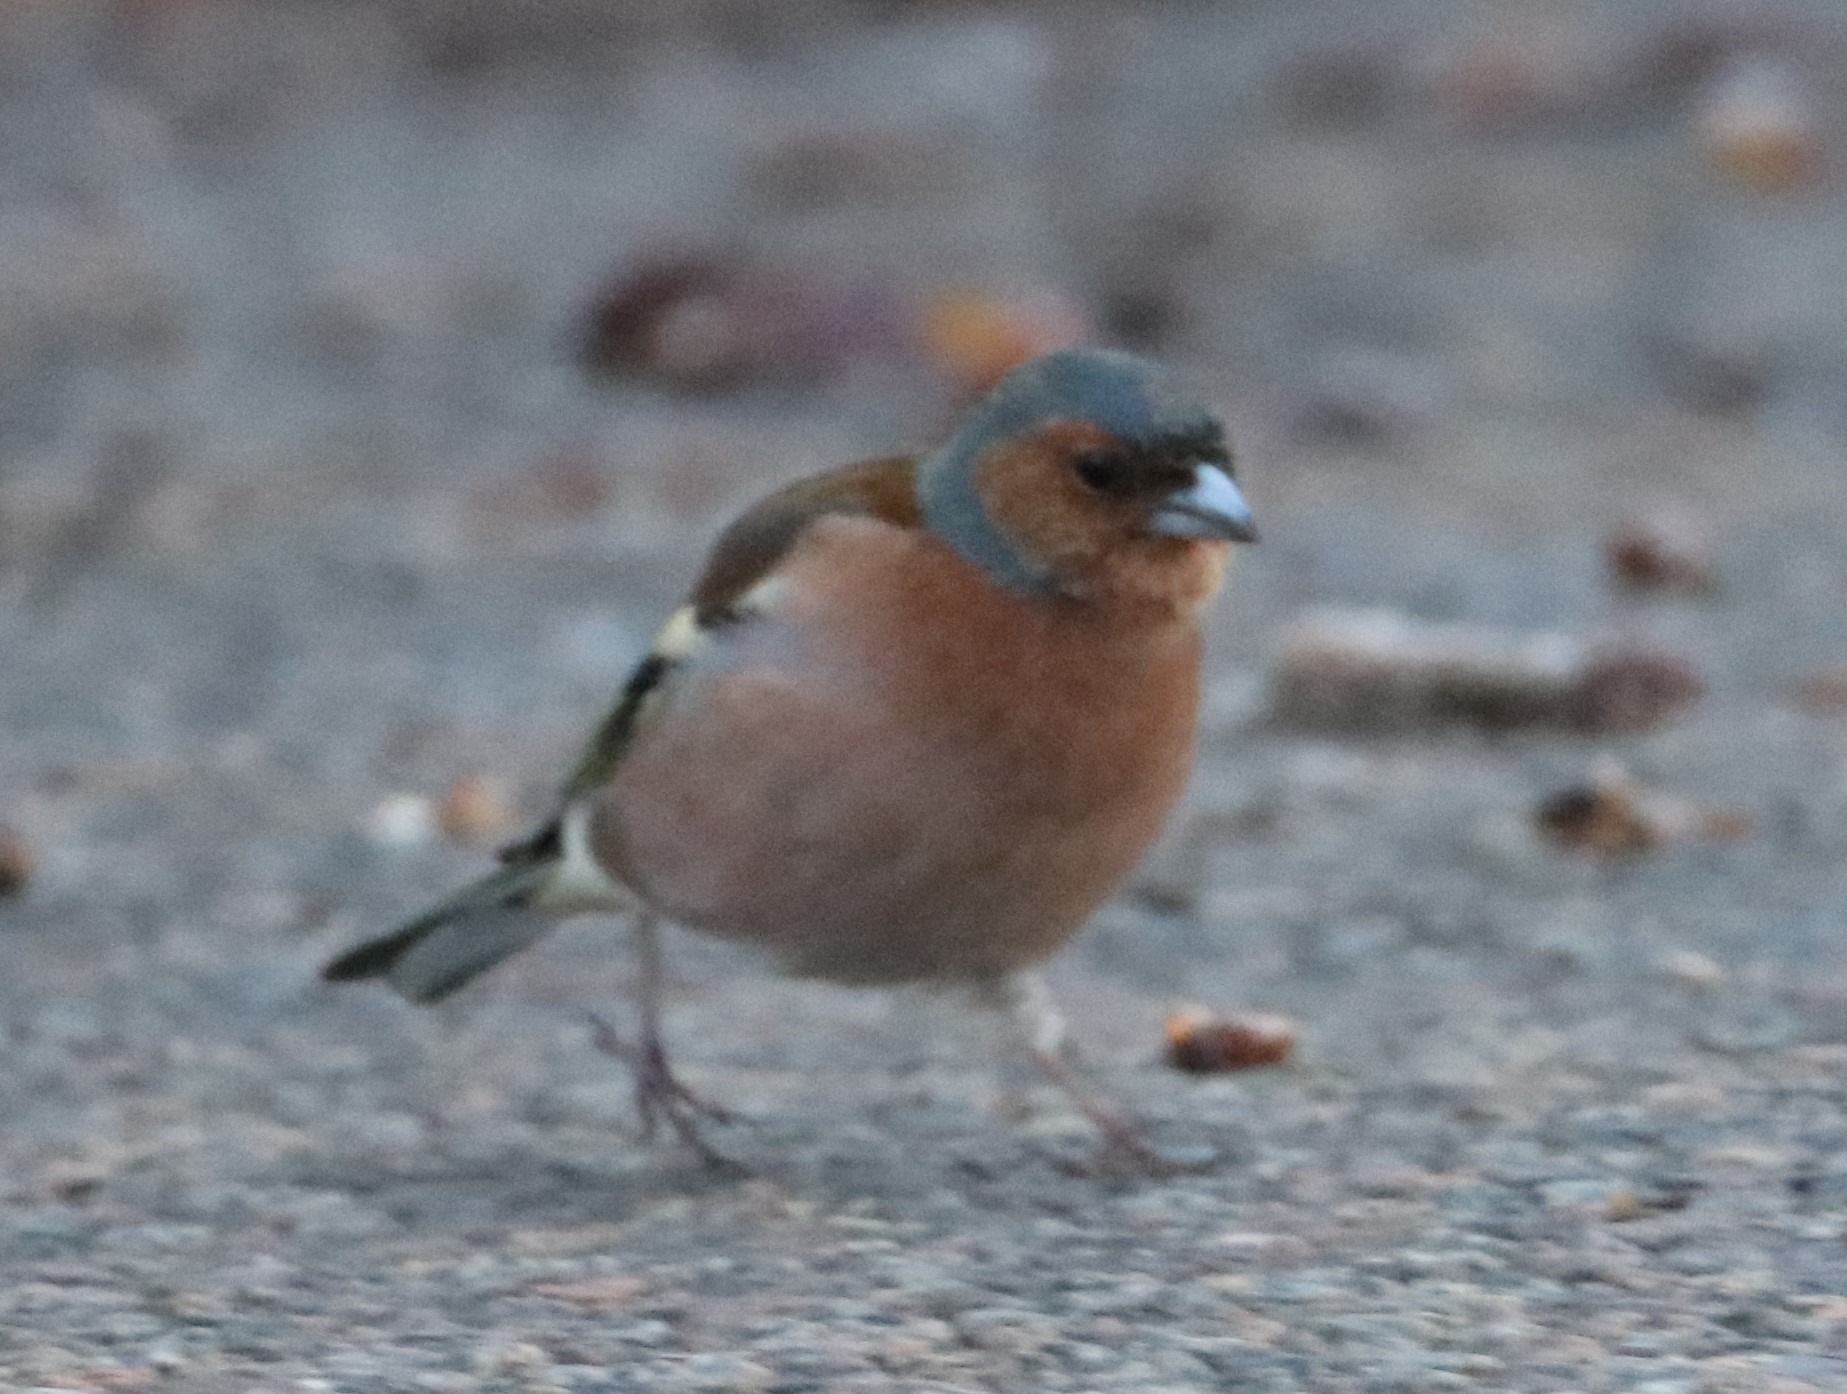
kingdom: Animalia
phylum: Chordata
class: Aves
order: Passeriformes
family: Fringillidae
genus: Fringilla
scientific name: Fringilla coelebs
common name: Bogfinke
